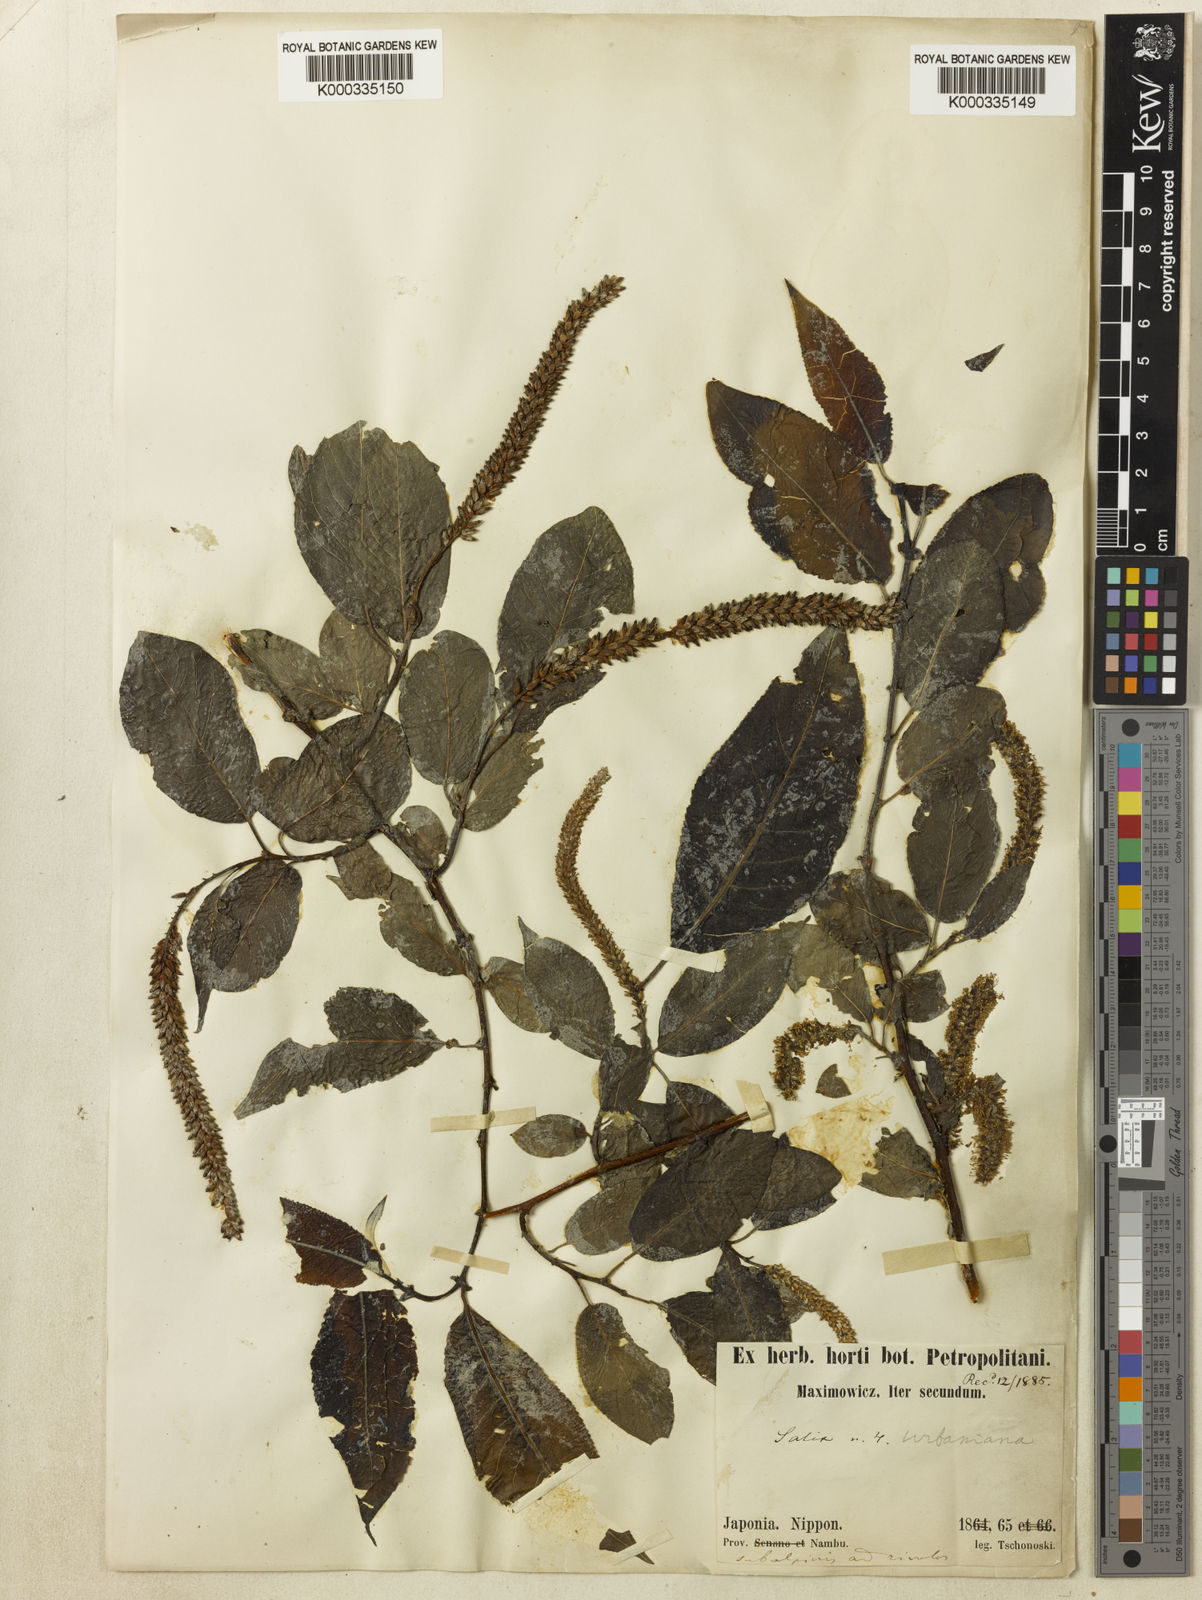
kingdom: Plantae
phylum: Tracheophyta
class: Magnoliopsida
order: Malpighiales
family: Salicaceae
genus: Chosenia
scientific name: Chosenia urbaniana
